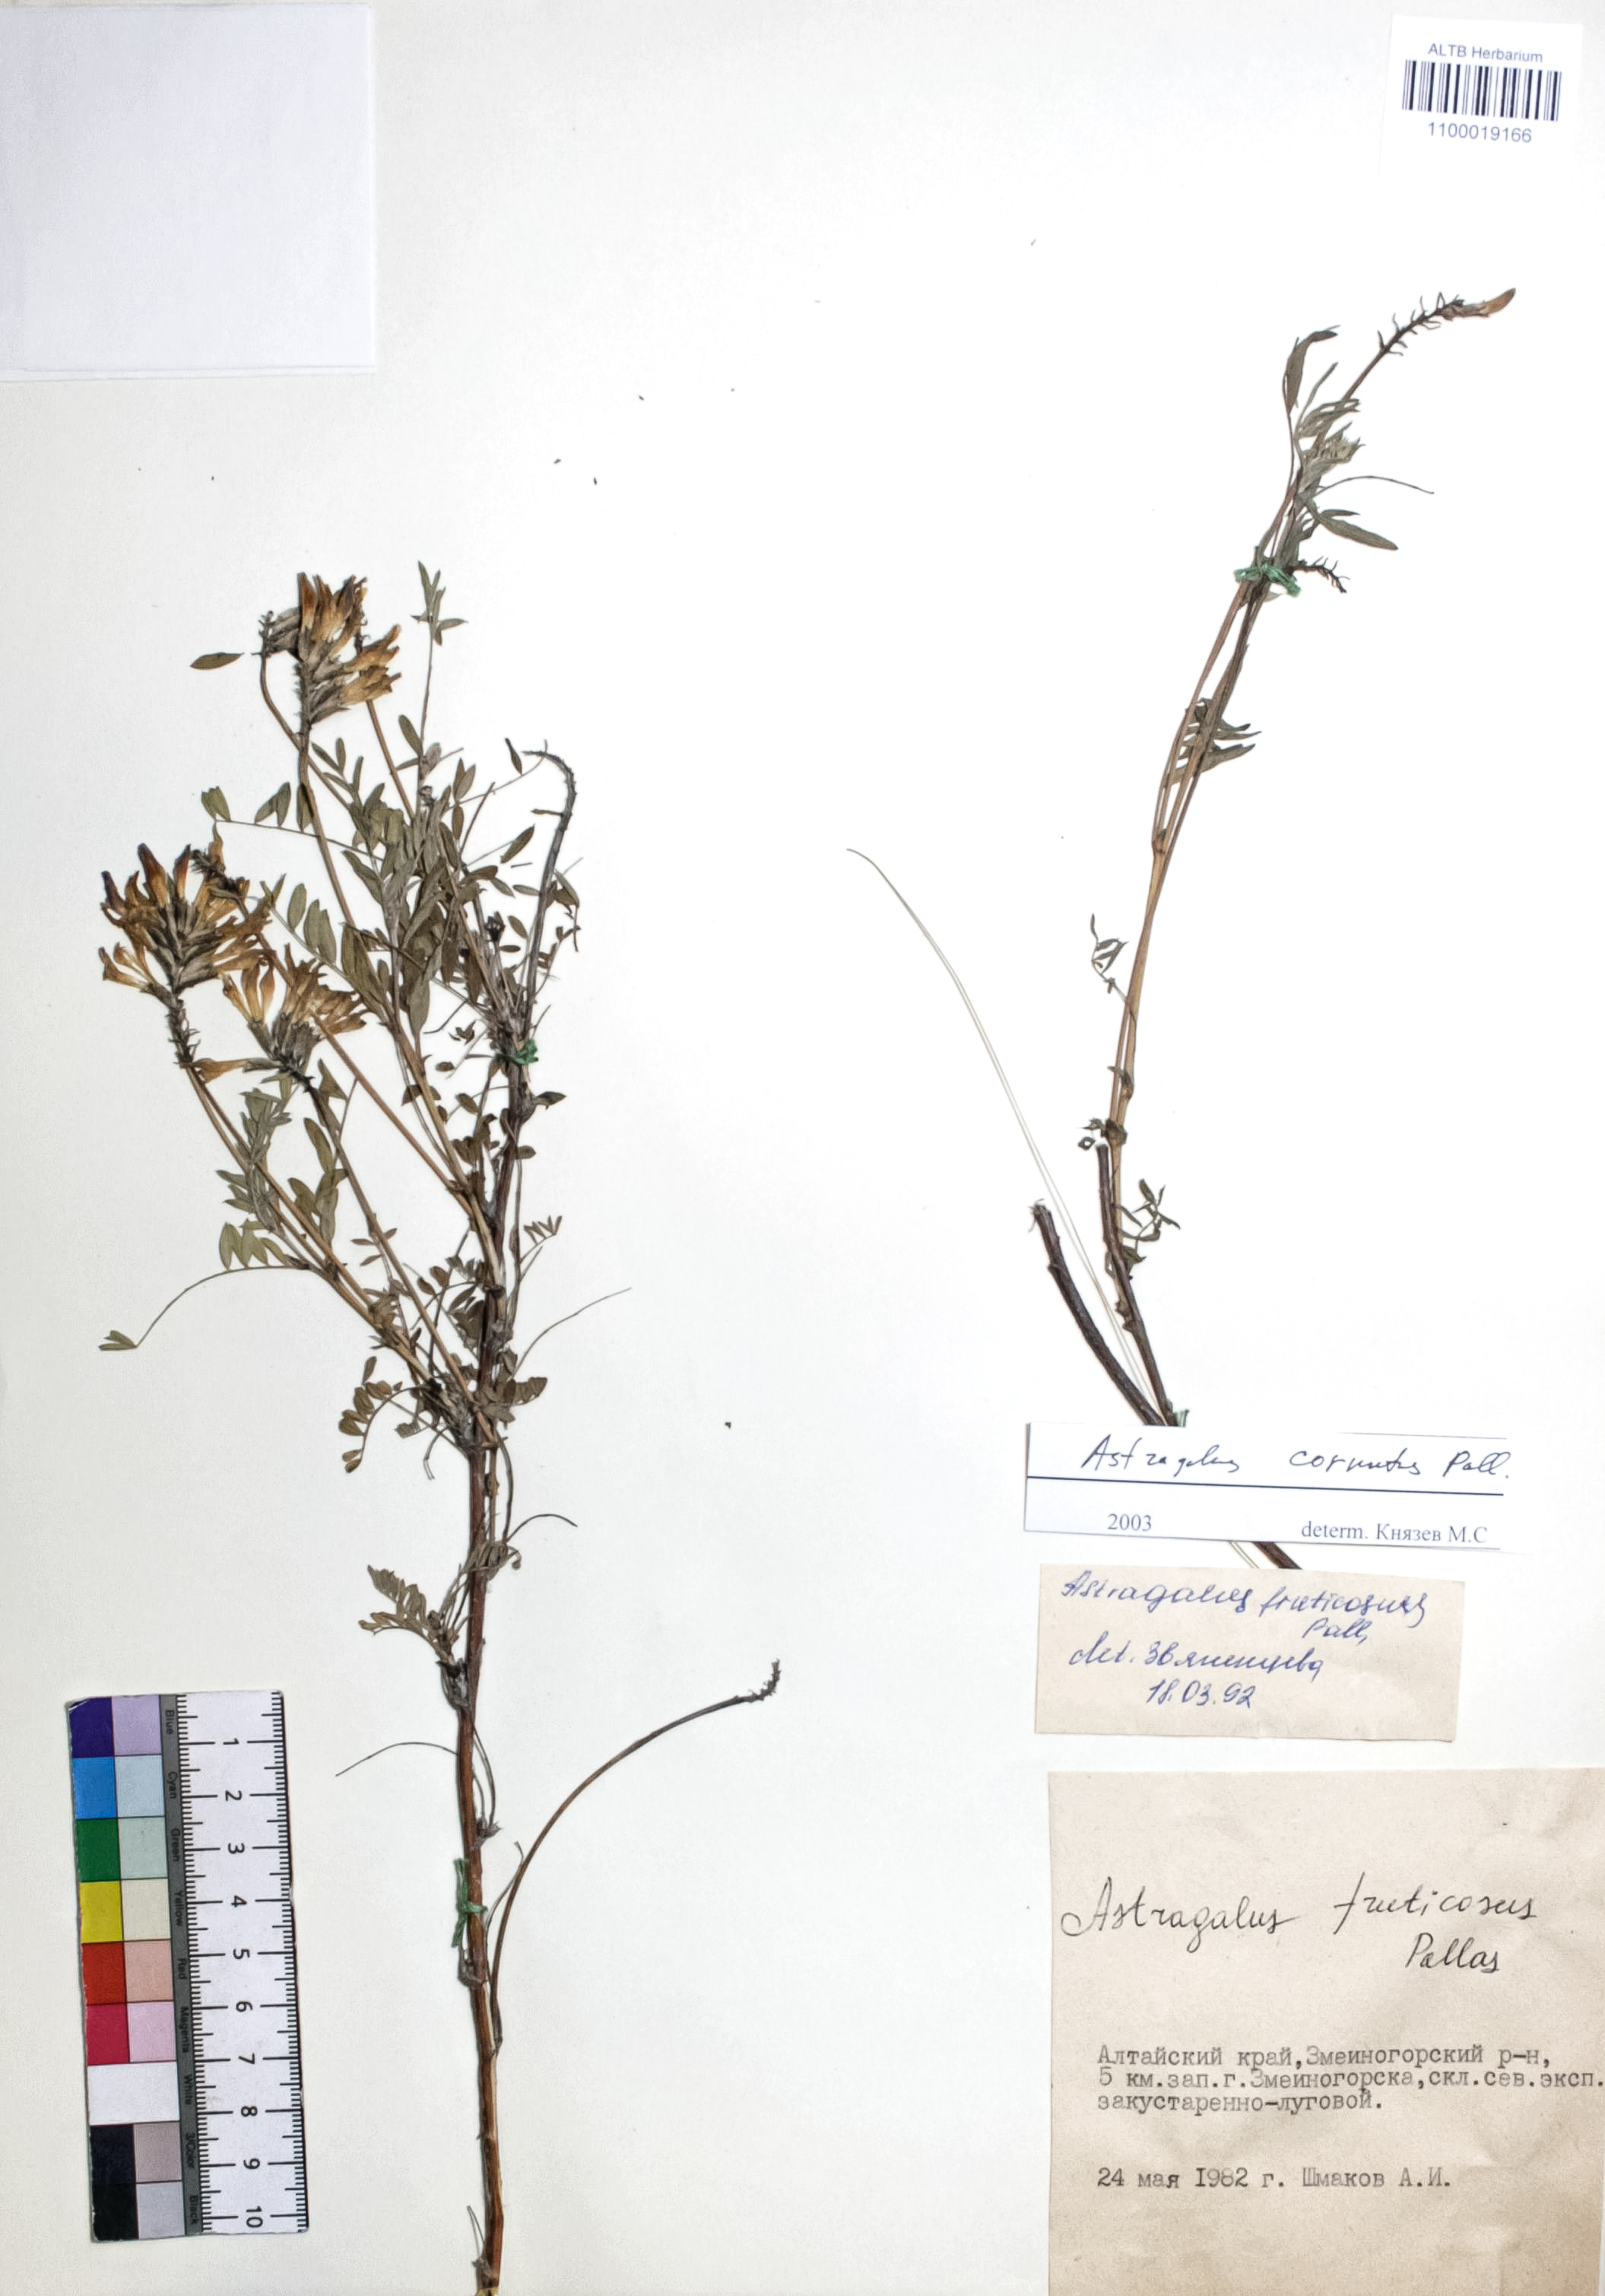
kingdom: Plantae
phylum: Tracheophyta
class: Magnoliopsida
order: Fabales
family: Fabaceae
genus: Astragalus
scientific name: Astragalus cornutus
